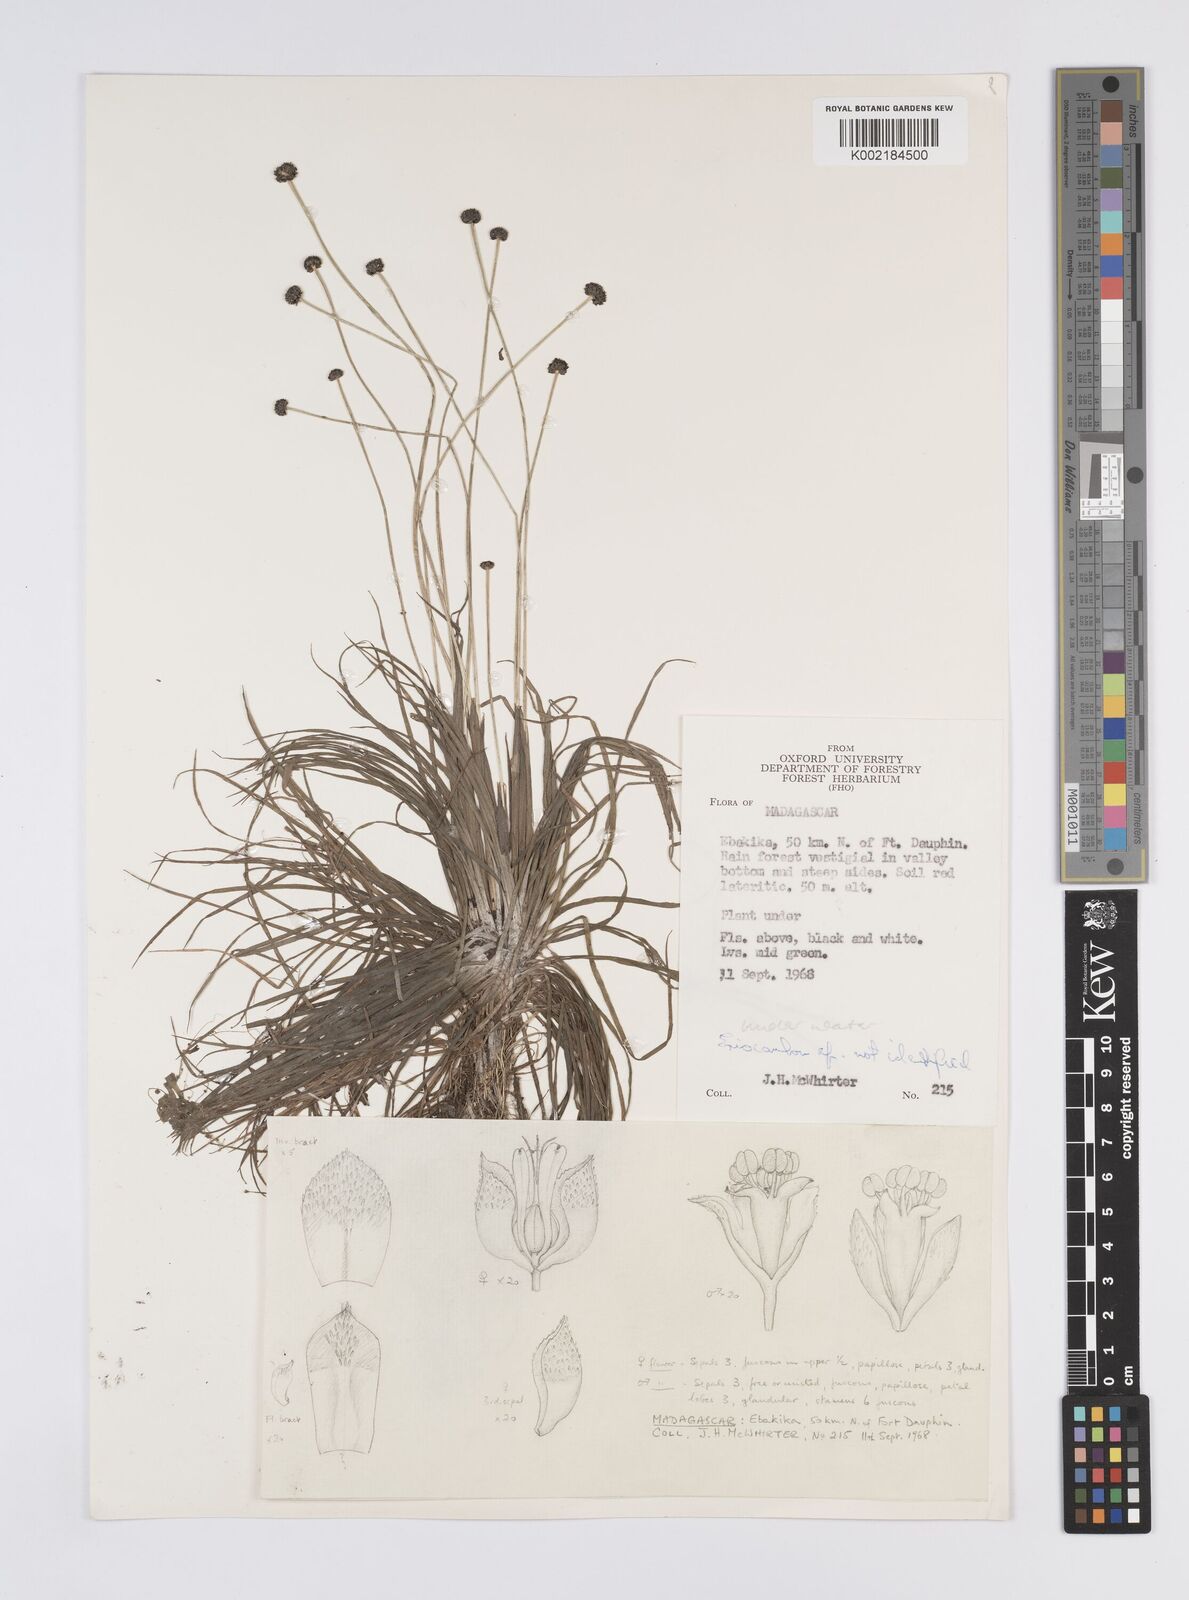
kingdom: Plantae
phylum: Tracheophyta
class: Liliopsida
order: Poales
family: Eriocaulaceae
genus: Eriocaulon
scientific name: Eriocaulon
